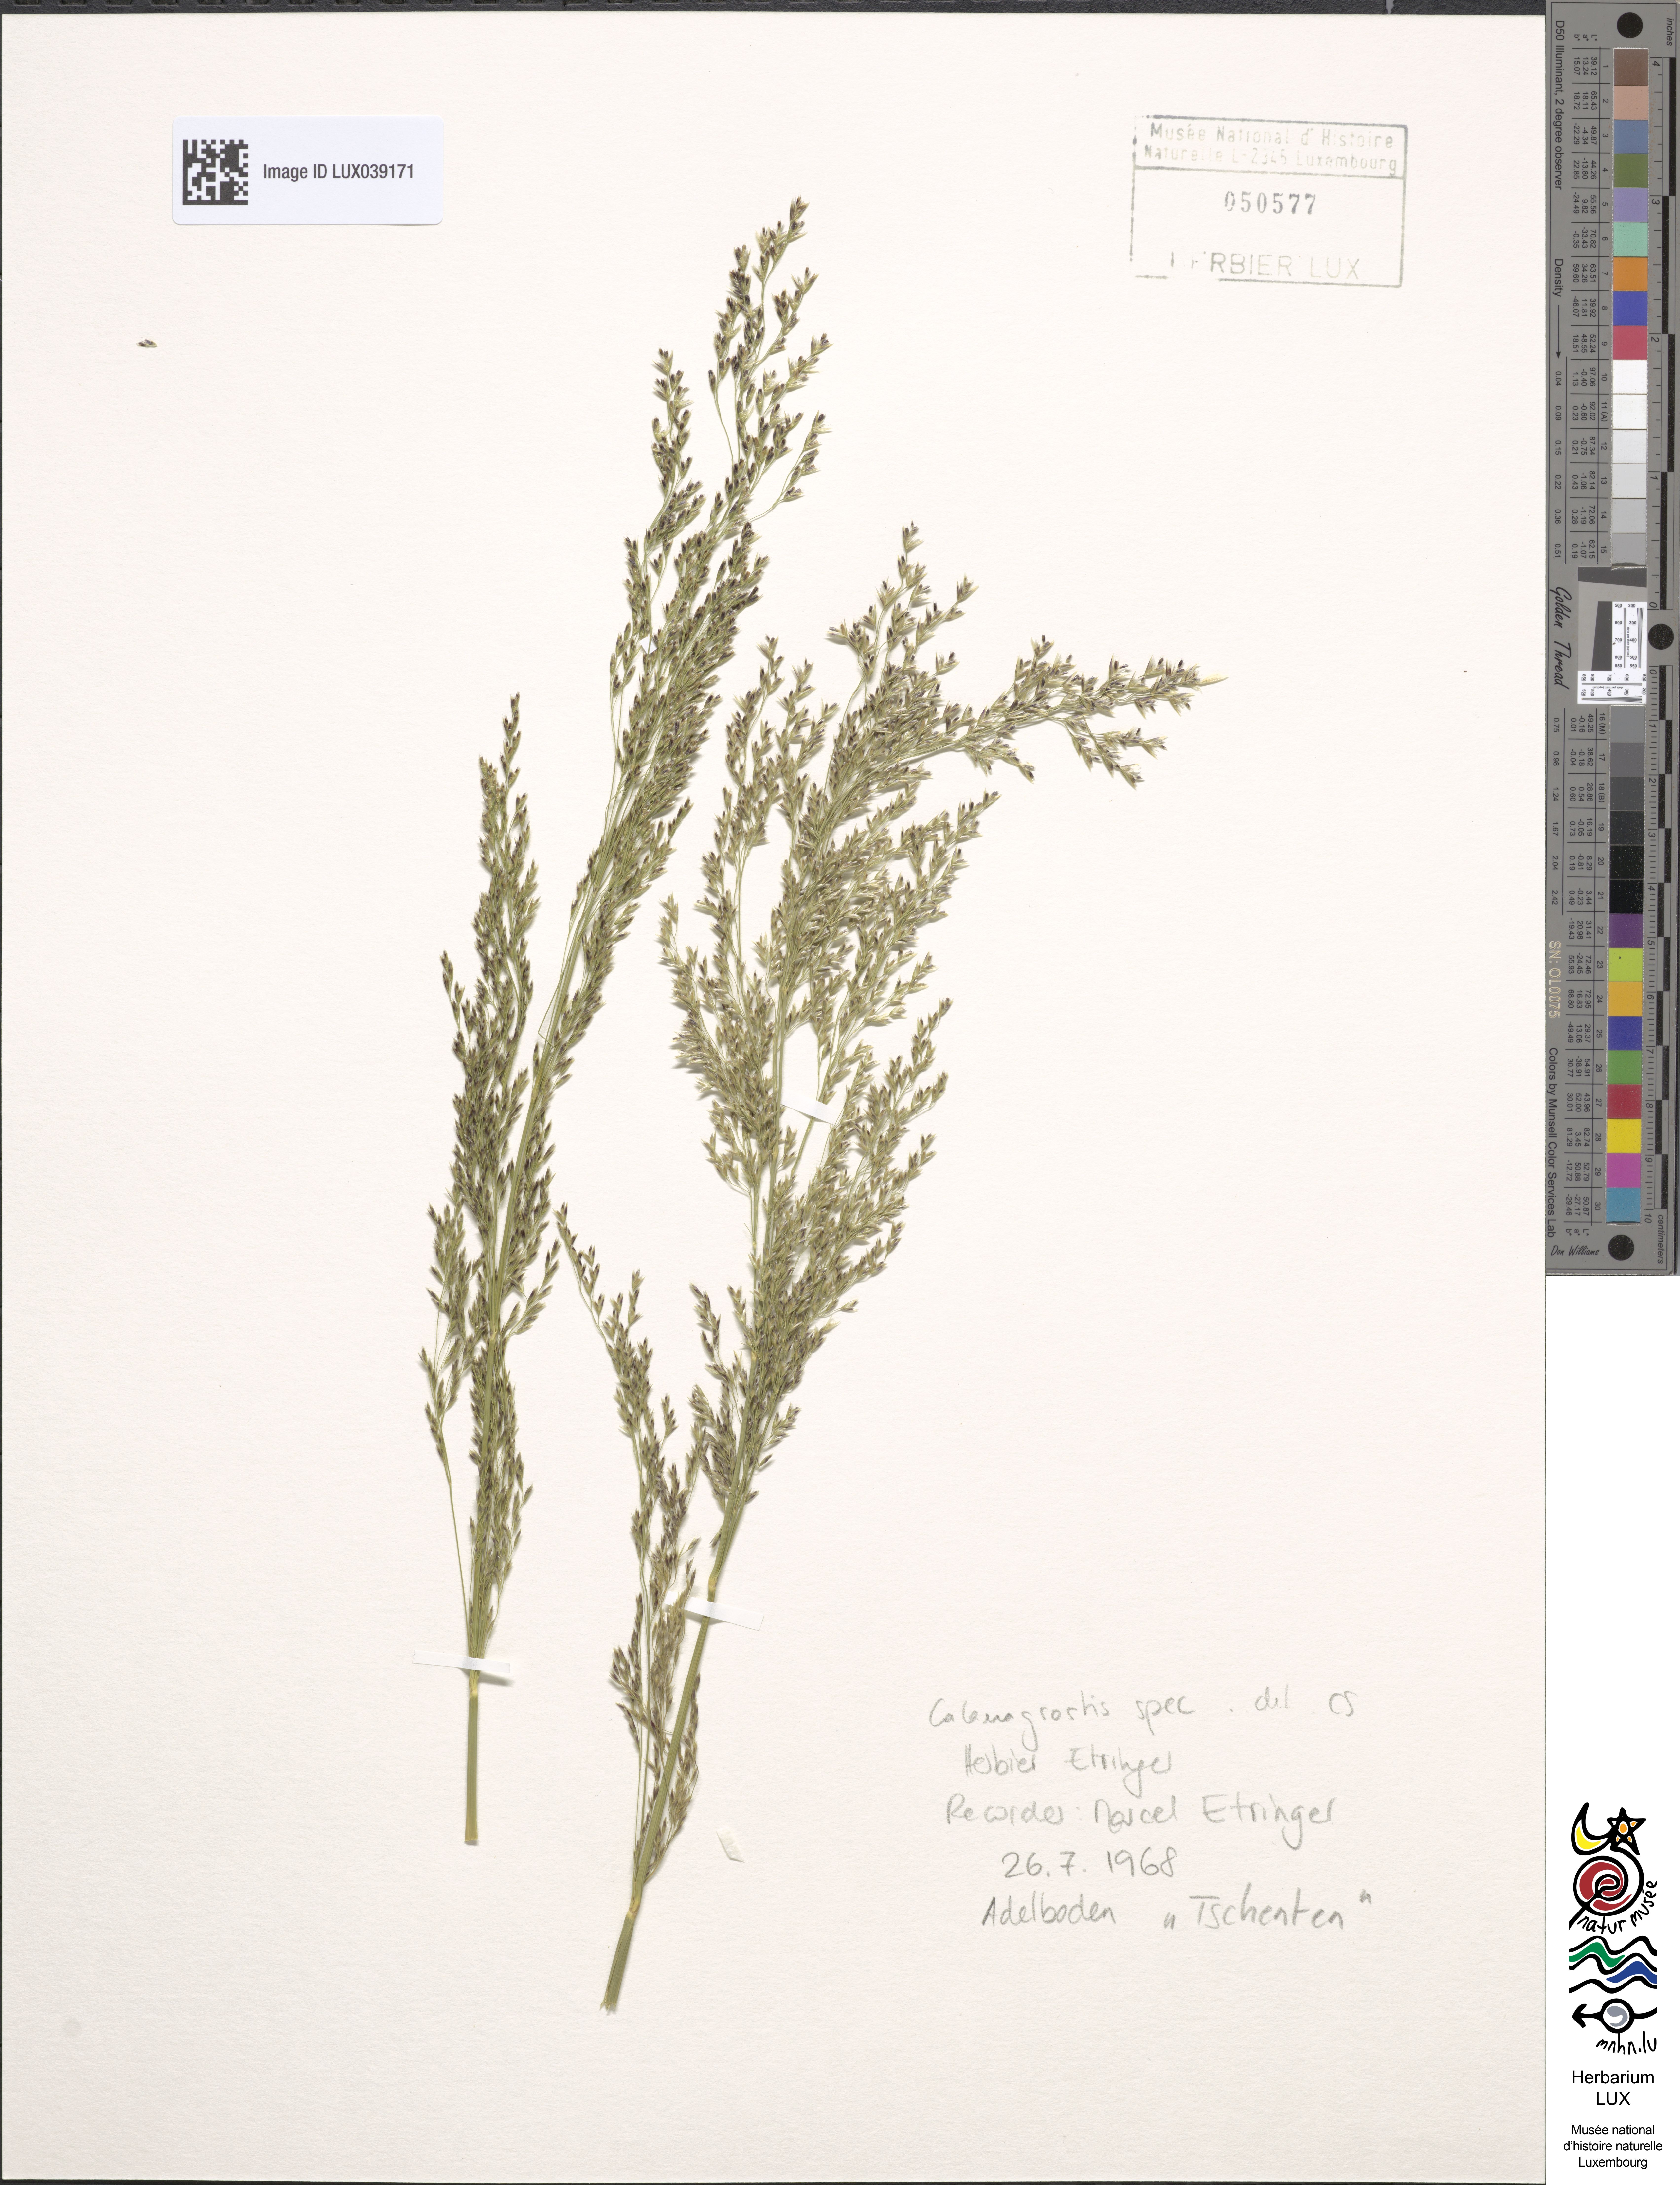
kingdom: Plantae
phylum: Tracheophyta
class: Liliopsida
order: Poales
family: Poaceae
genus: Calamagrostis
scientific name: Calamagrostis
